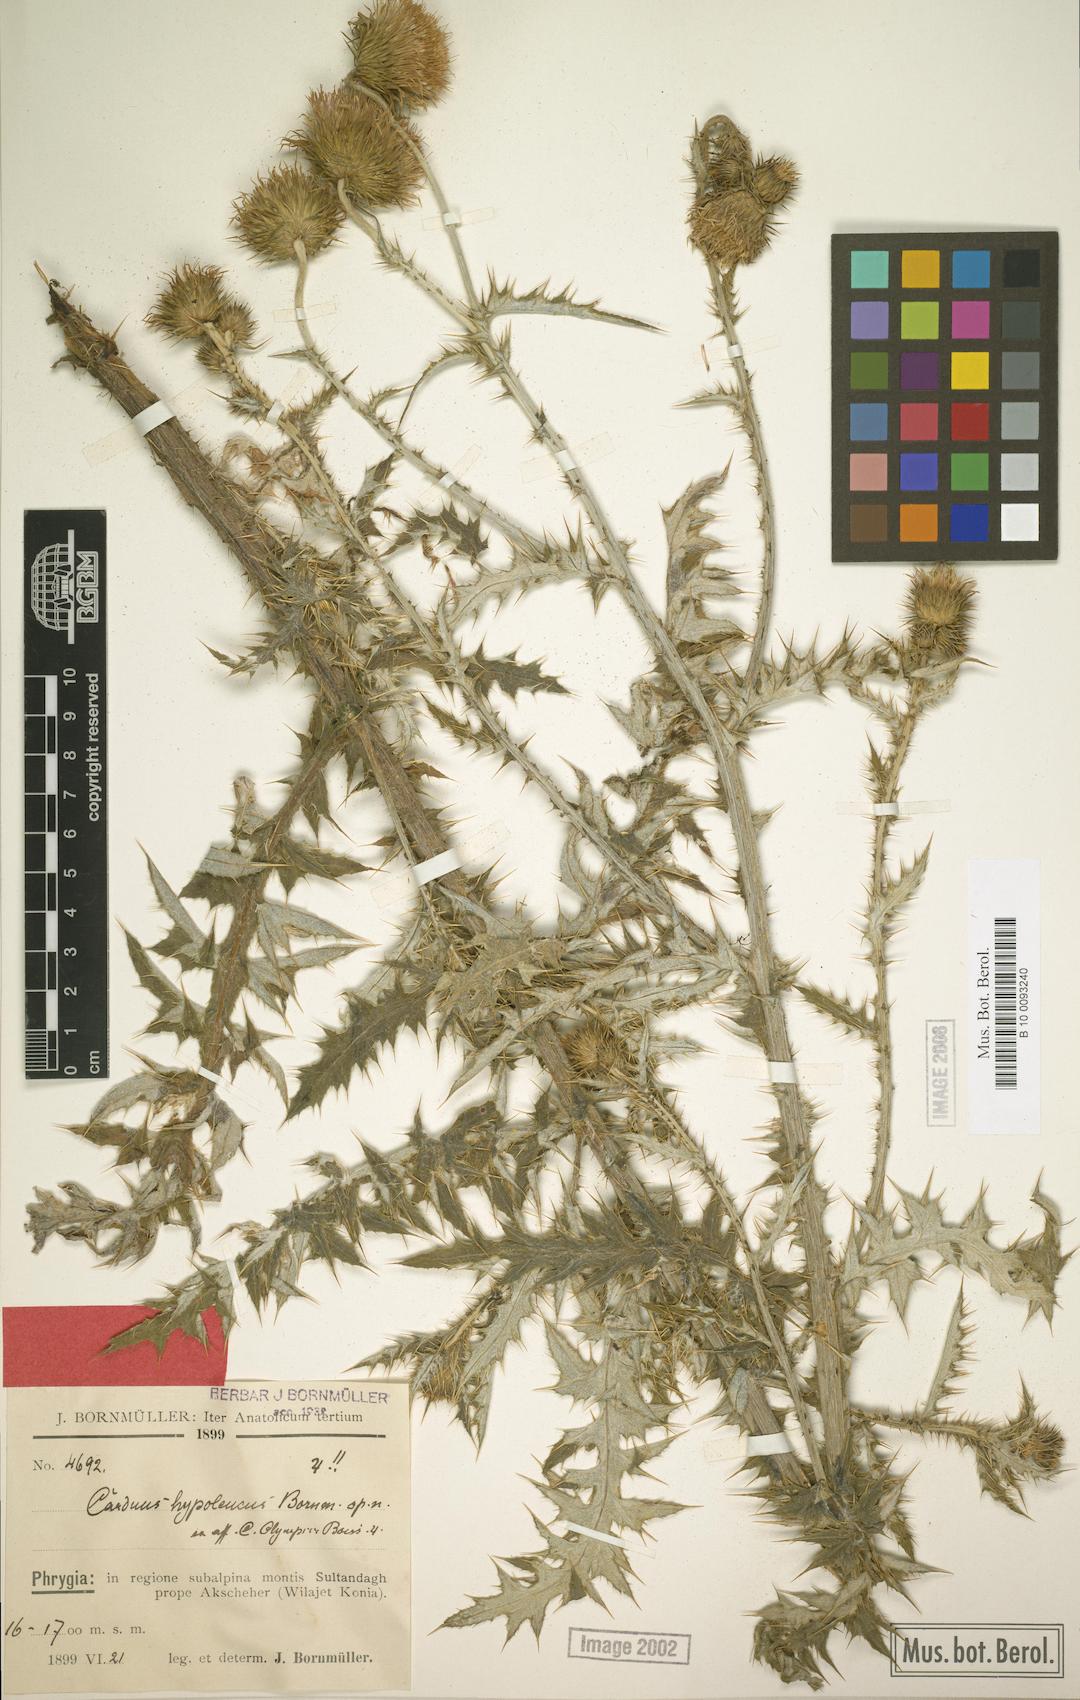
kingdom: Plantae
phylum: Tracheophyta
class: Magnoliopsida
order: Asterales
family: Asteraceae
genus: Carduus
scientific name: Carduus olympicus
